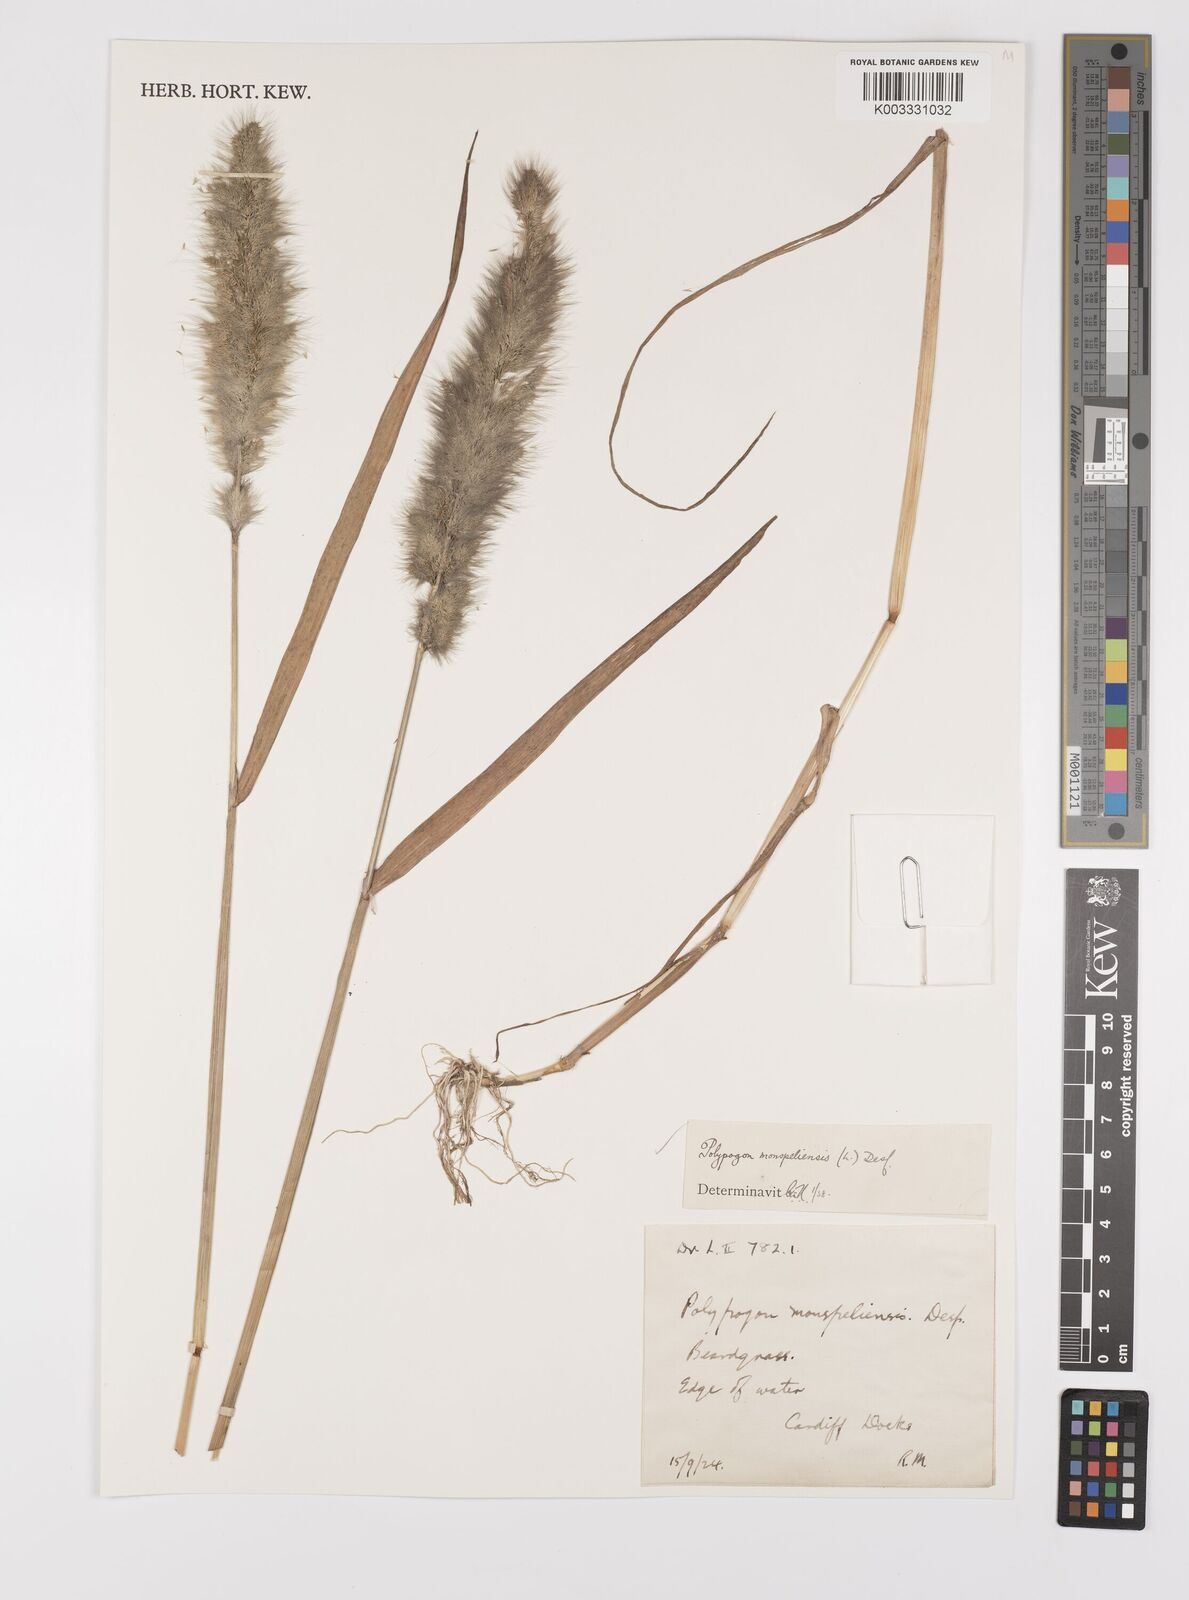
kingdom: Plantae
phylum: Tracheophyta
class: Liliopsida
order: Poales
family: Poaceae
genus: Polypogon
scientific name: Polypogon monspeliensis
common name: Annual rabbitsfoot grass
